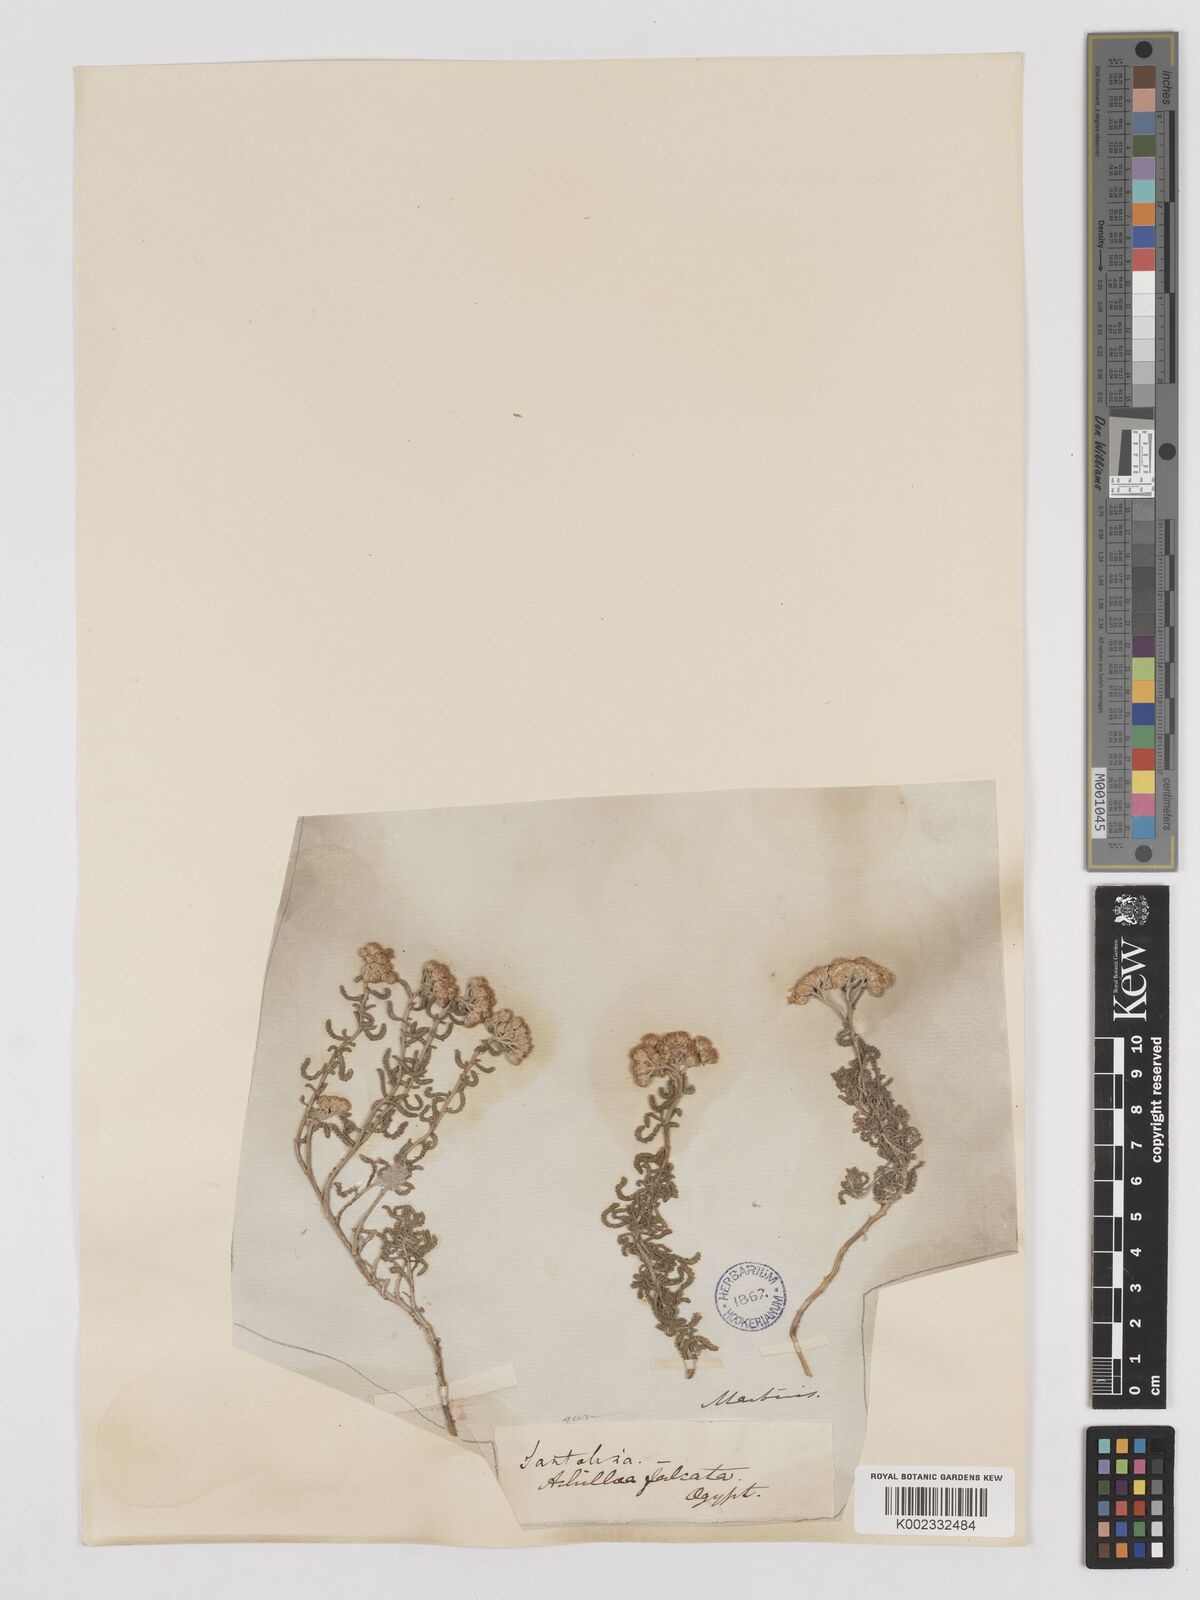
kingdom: Plantae
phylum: Tracheophyta
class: Magnoliopsida
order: Asterales
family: Asteraceae
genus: Achillea
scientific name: Achillea tenuifolia
